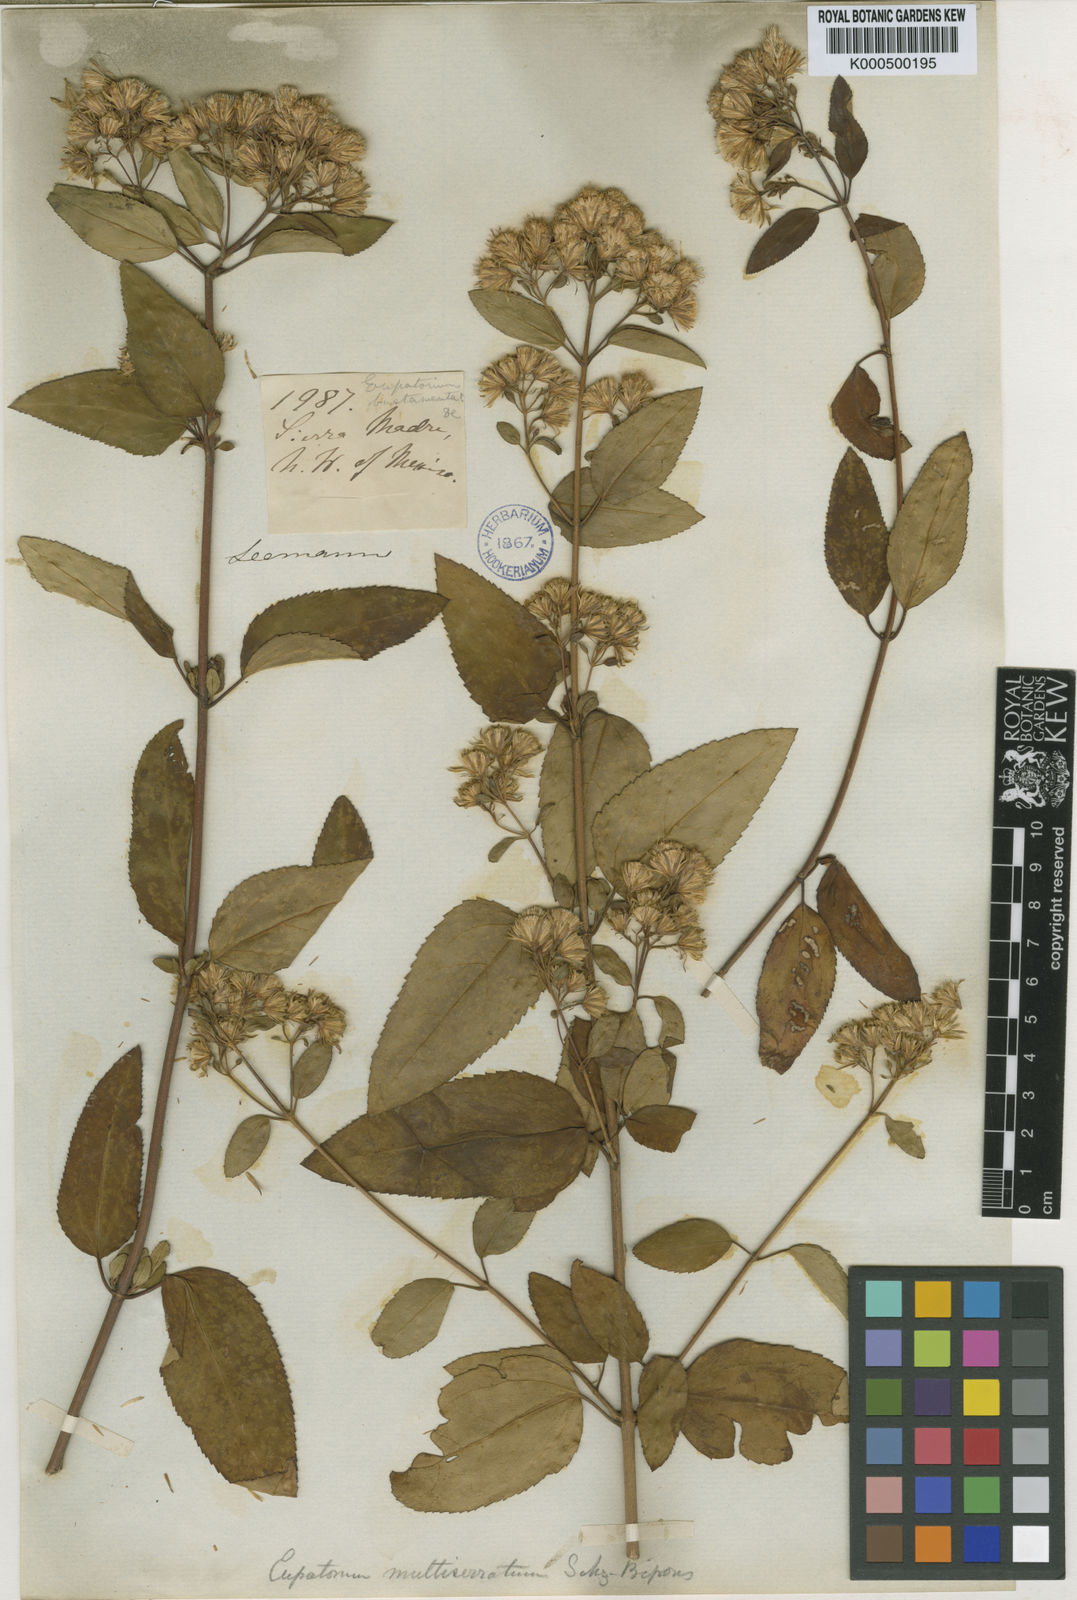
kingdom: Plantae
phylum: Tracheophyta
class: Magnoliopsida
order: Asterales
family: Asteraceae
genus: Ageratina
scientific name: Ageratina bustamenta
